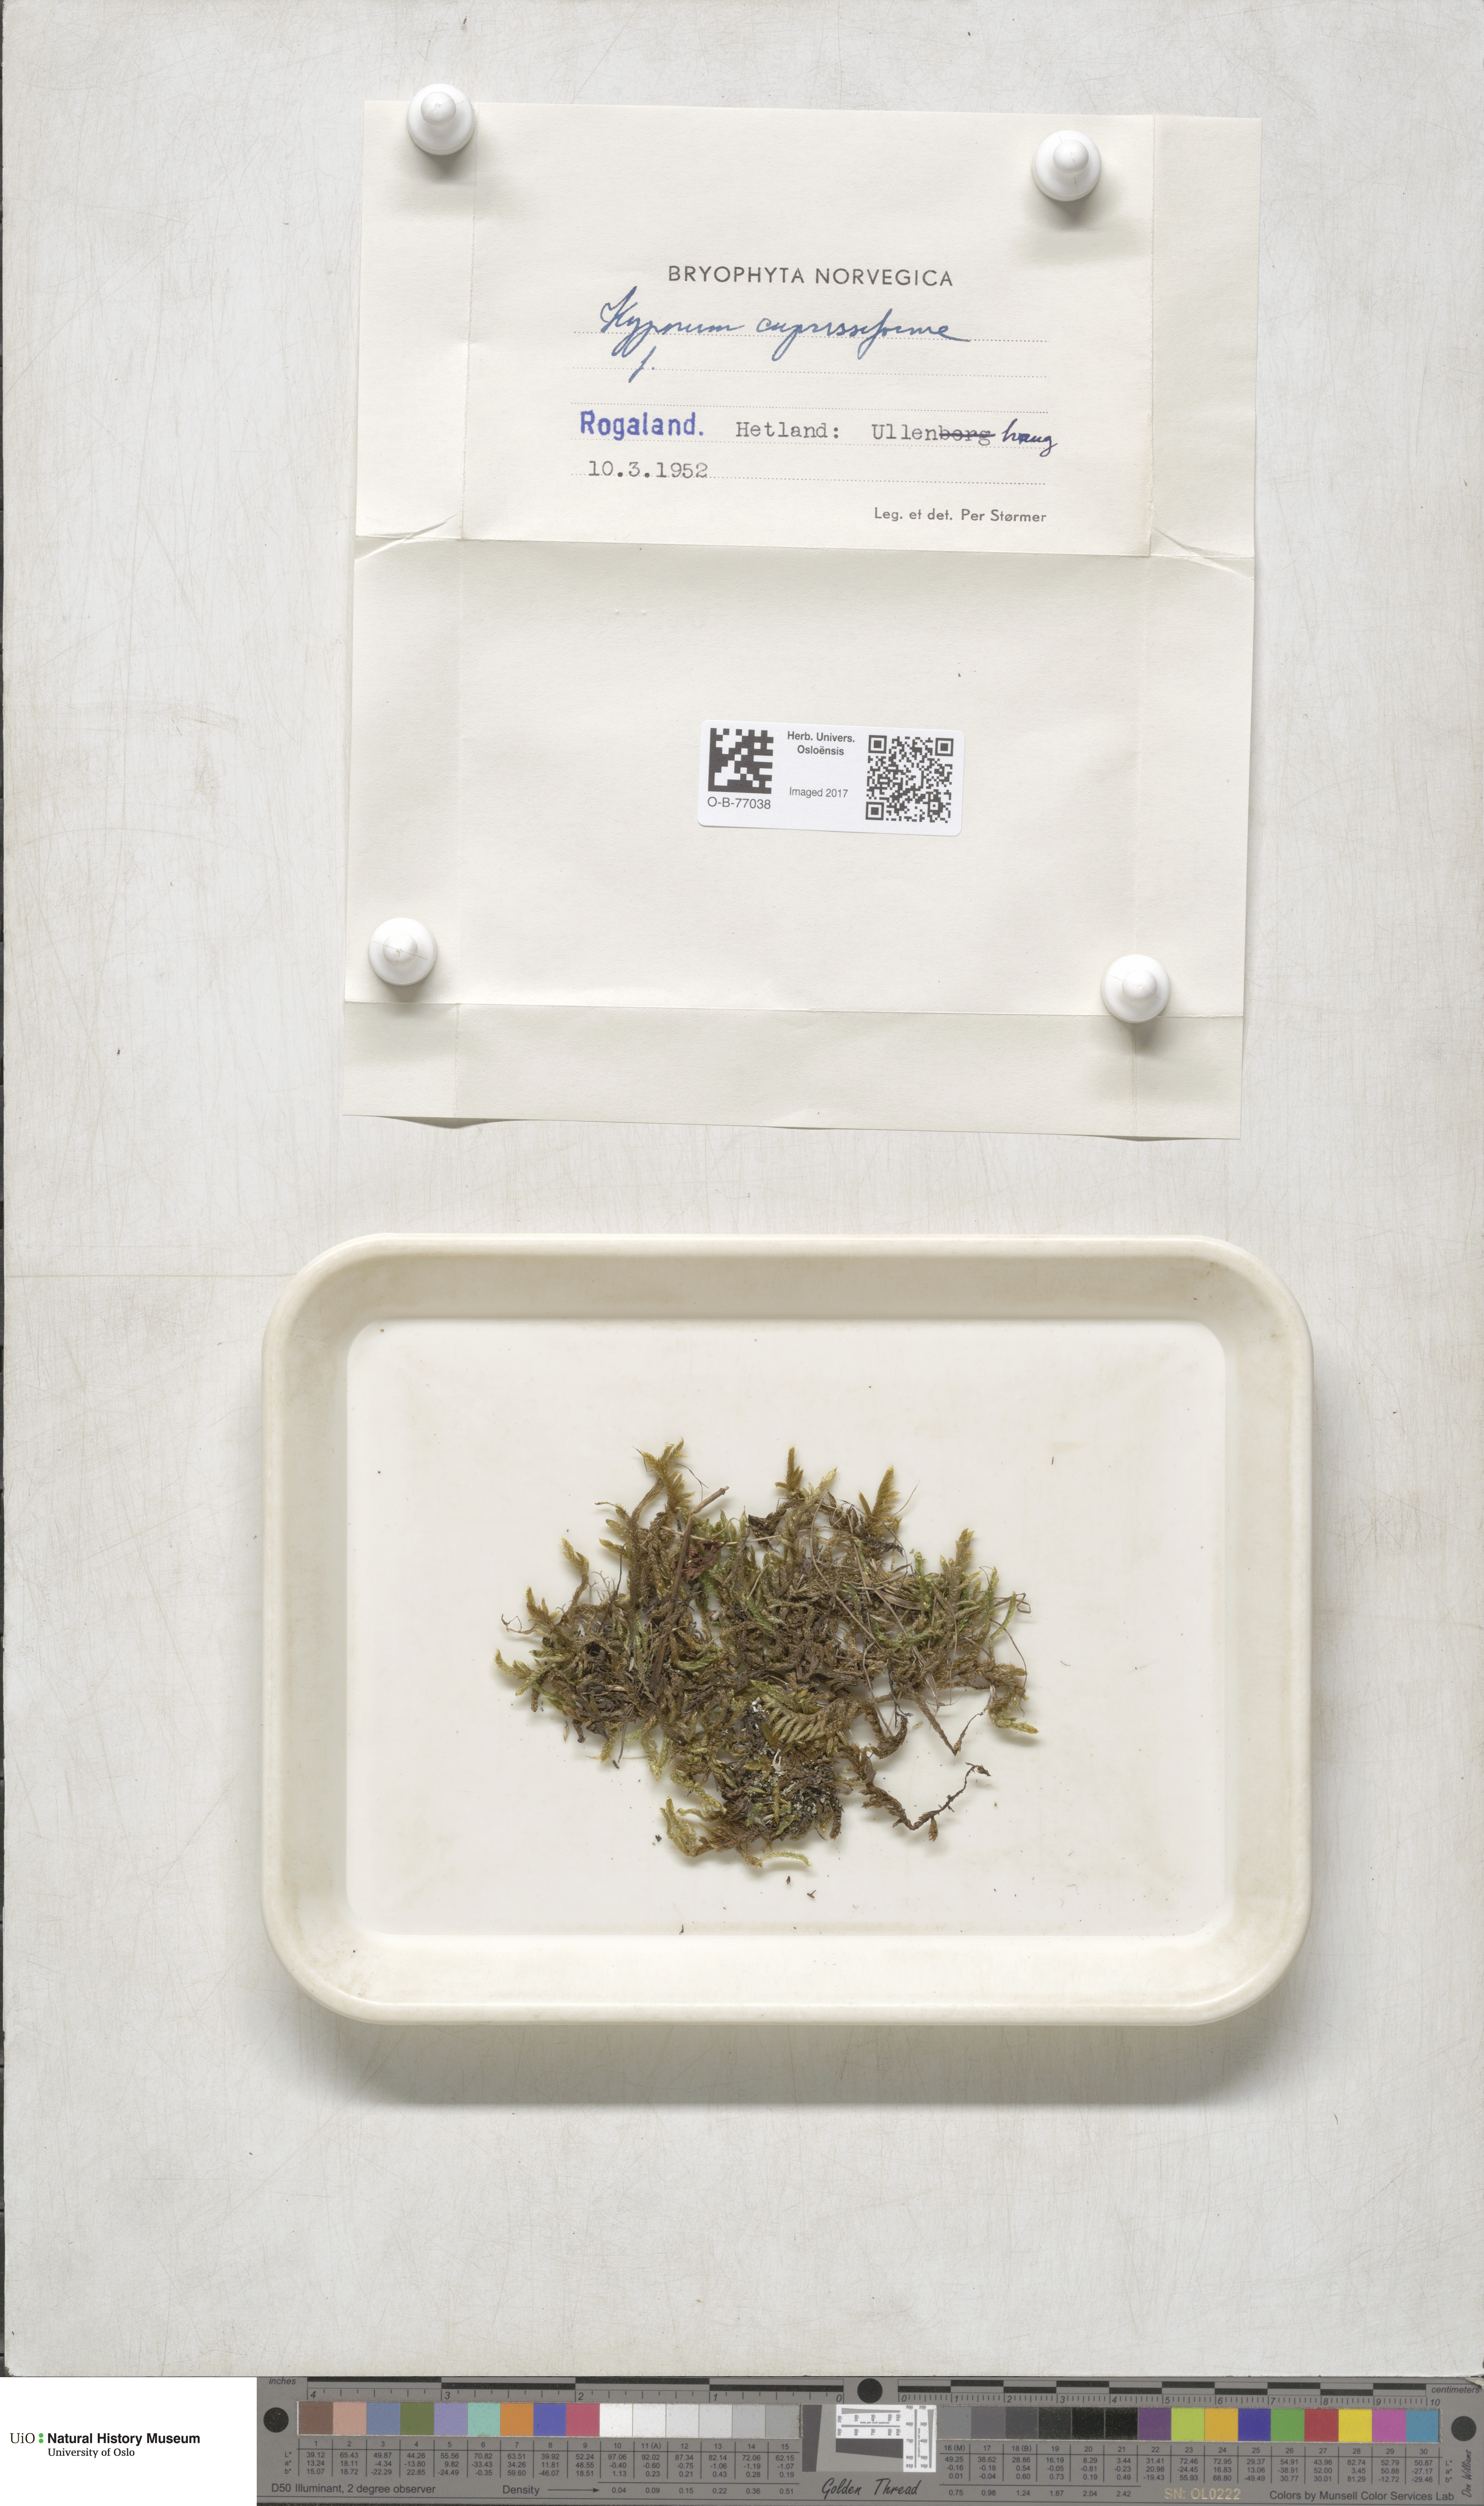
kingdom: Plantae
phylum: Bryophyta
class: Bryopsida
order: Hypnales
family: Hypnaceae
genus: Hypnum
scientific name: Hypnum cupressiforme
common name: Cypress-leaved plait-moss
